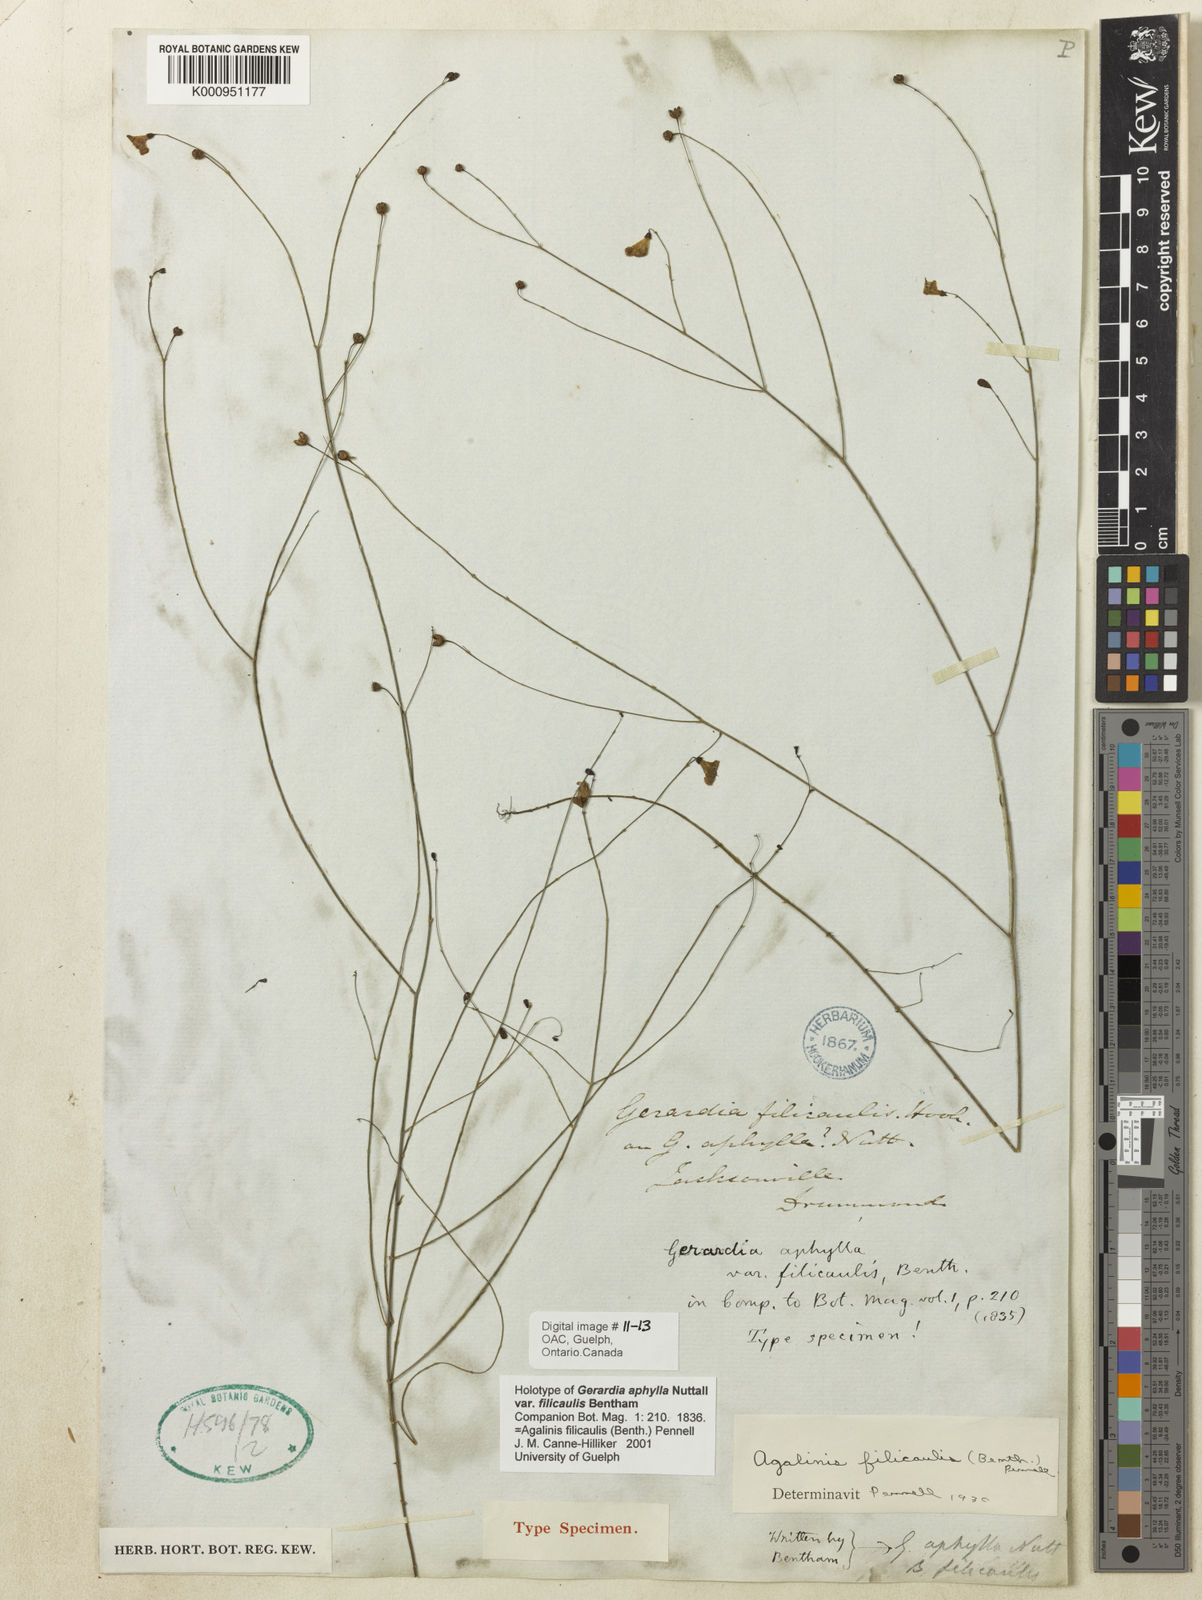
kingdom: Plantae
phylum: Tracheophyta
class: Magnoliopsida
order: Lamiales
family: Orobanchaceae
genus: Agalinis
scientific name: Agalinis filicaulis
